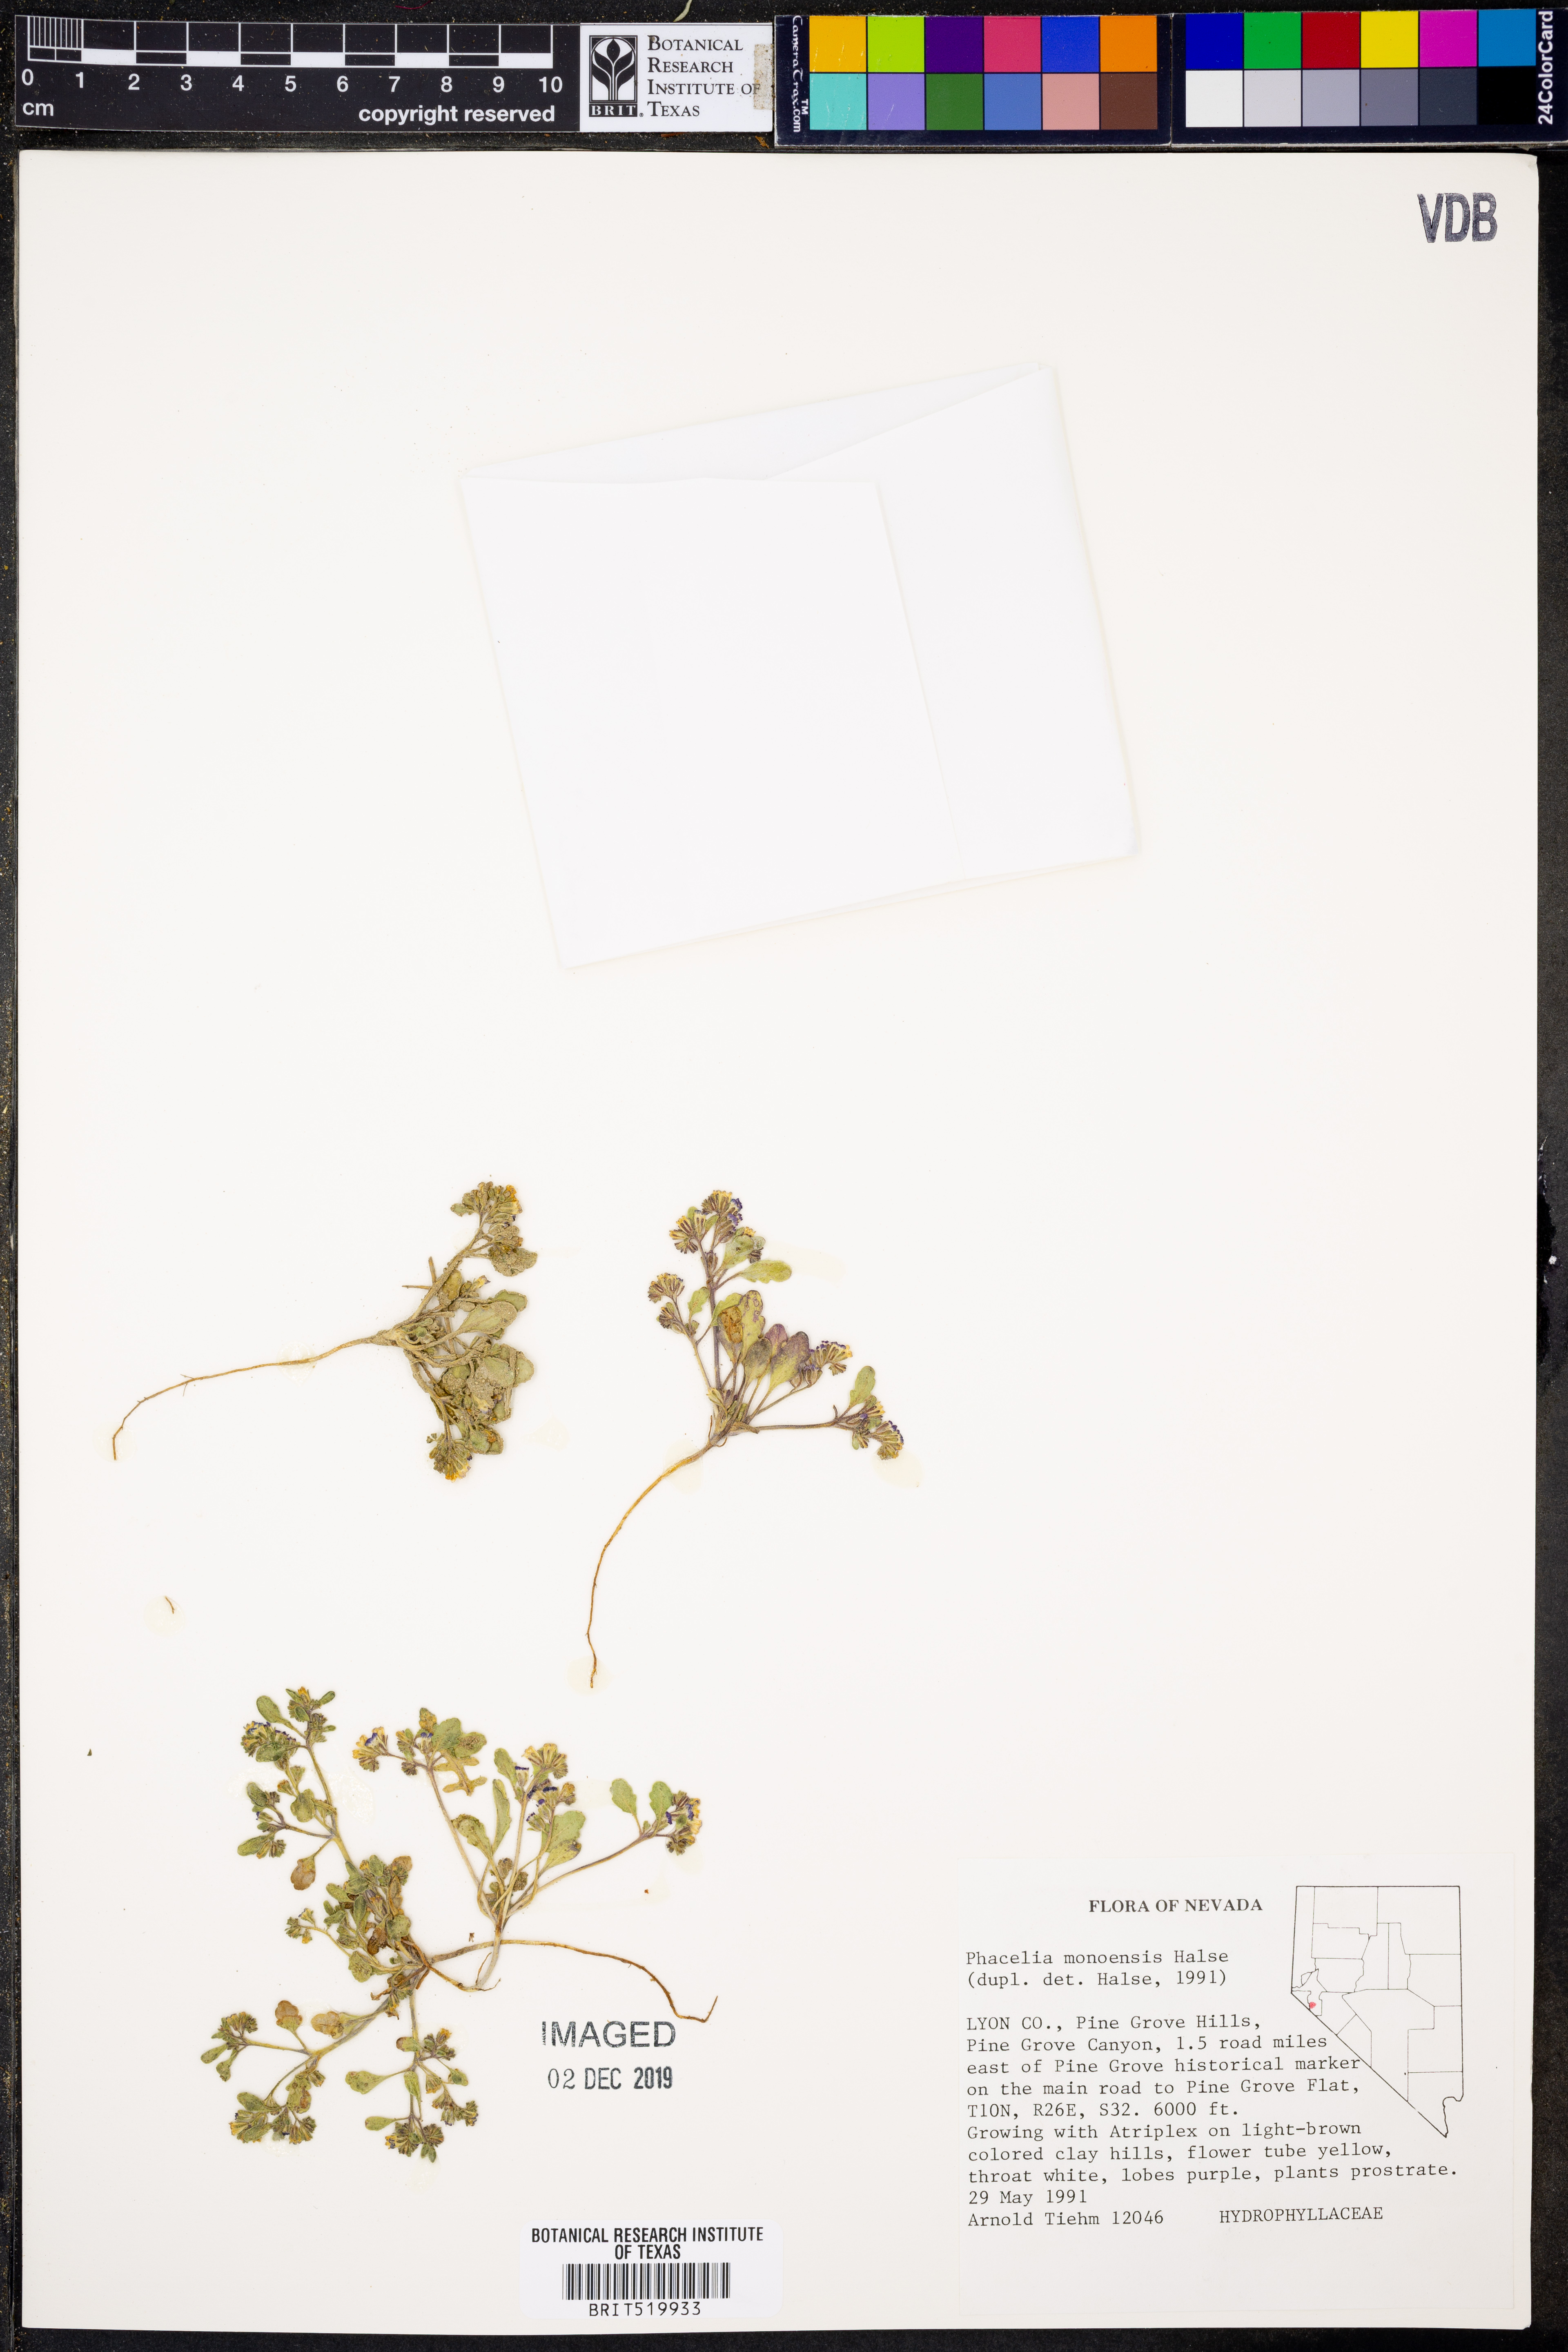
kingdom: Plantae
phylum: Tracheophyta
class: Magnoliopsida
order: Boraginales
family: Hydrophyllaceae
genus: Phacelia
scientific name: Phacelia monoensis
